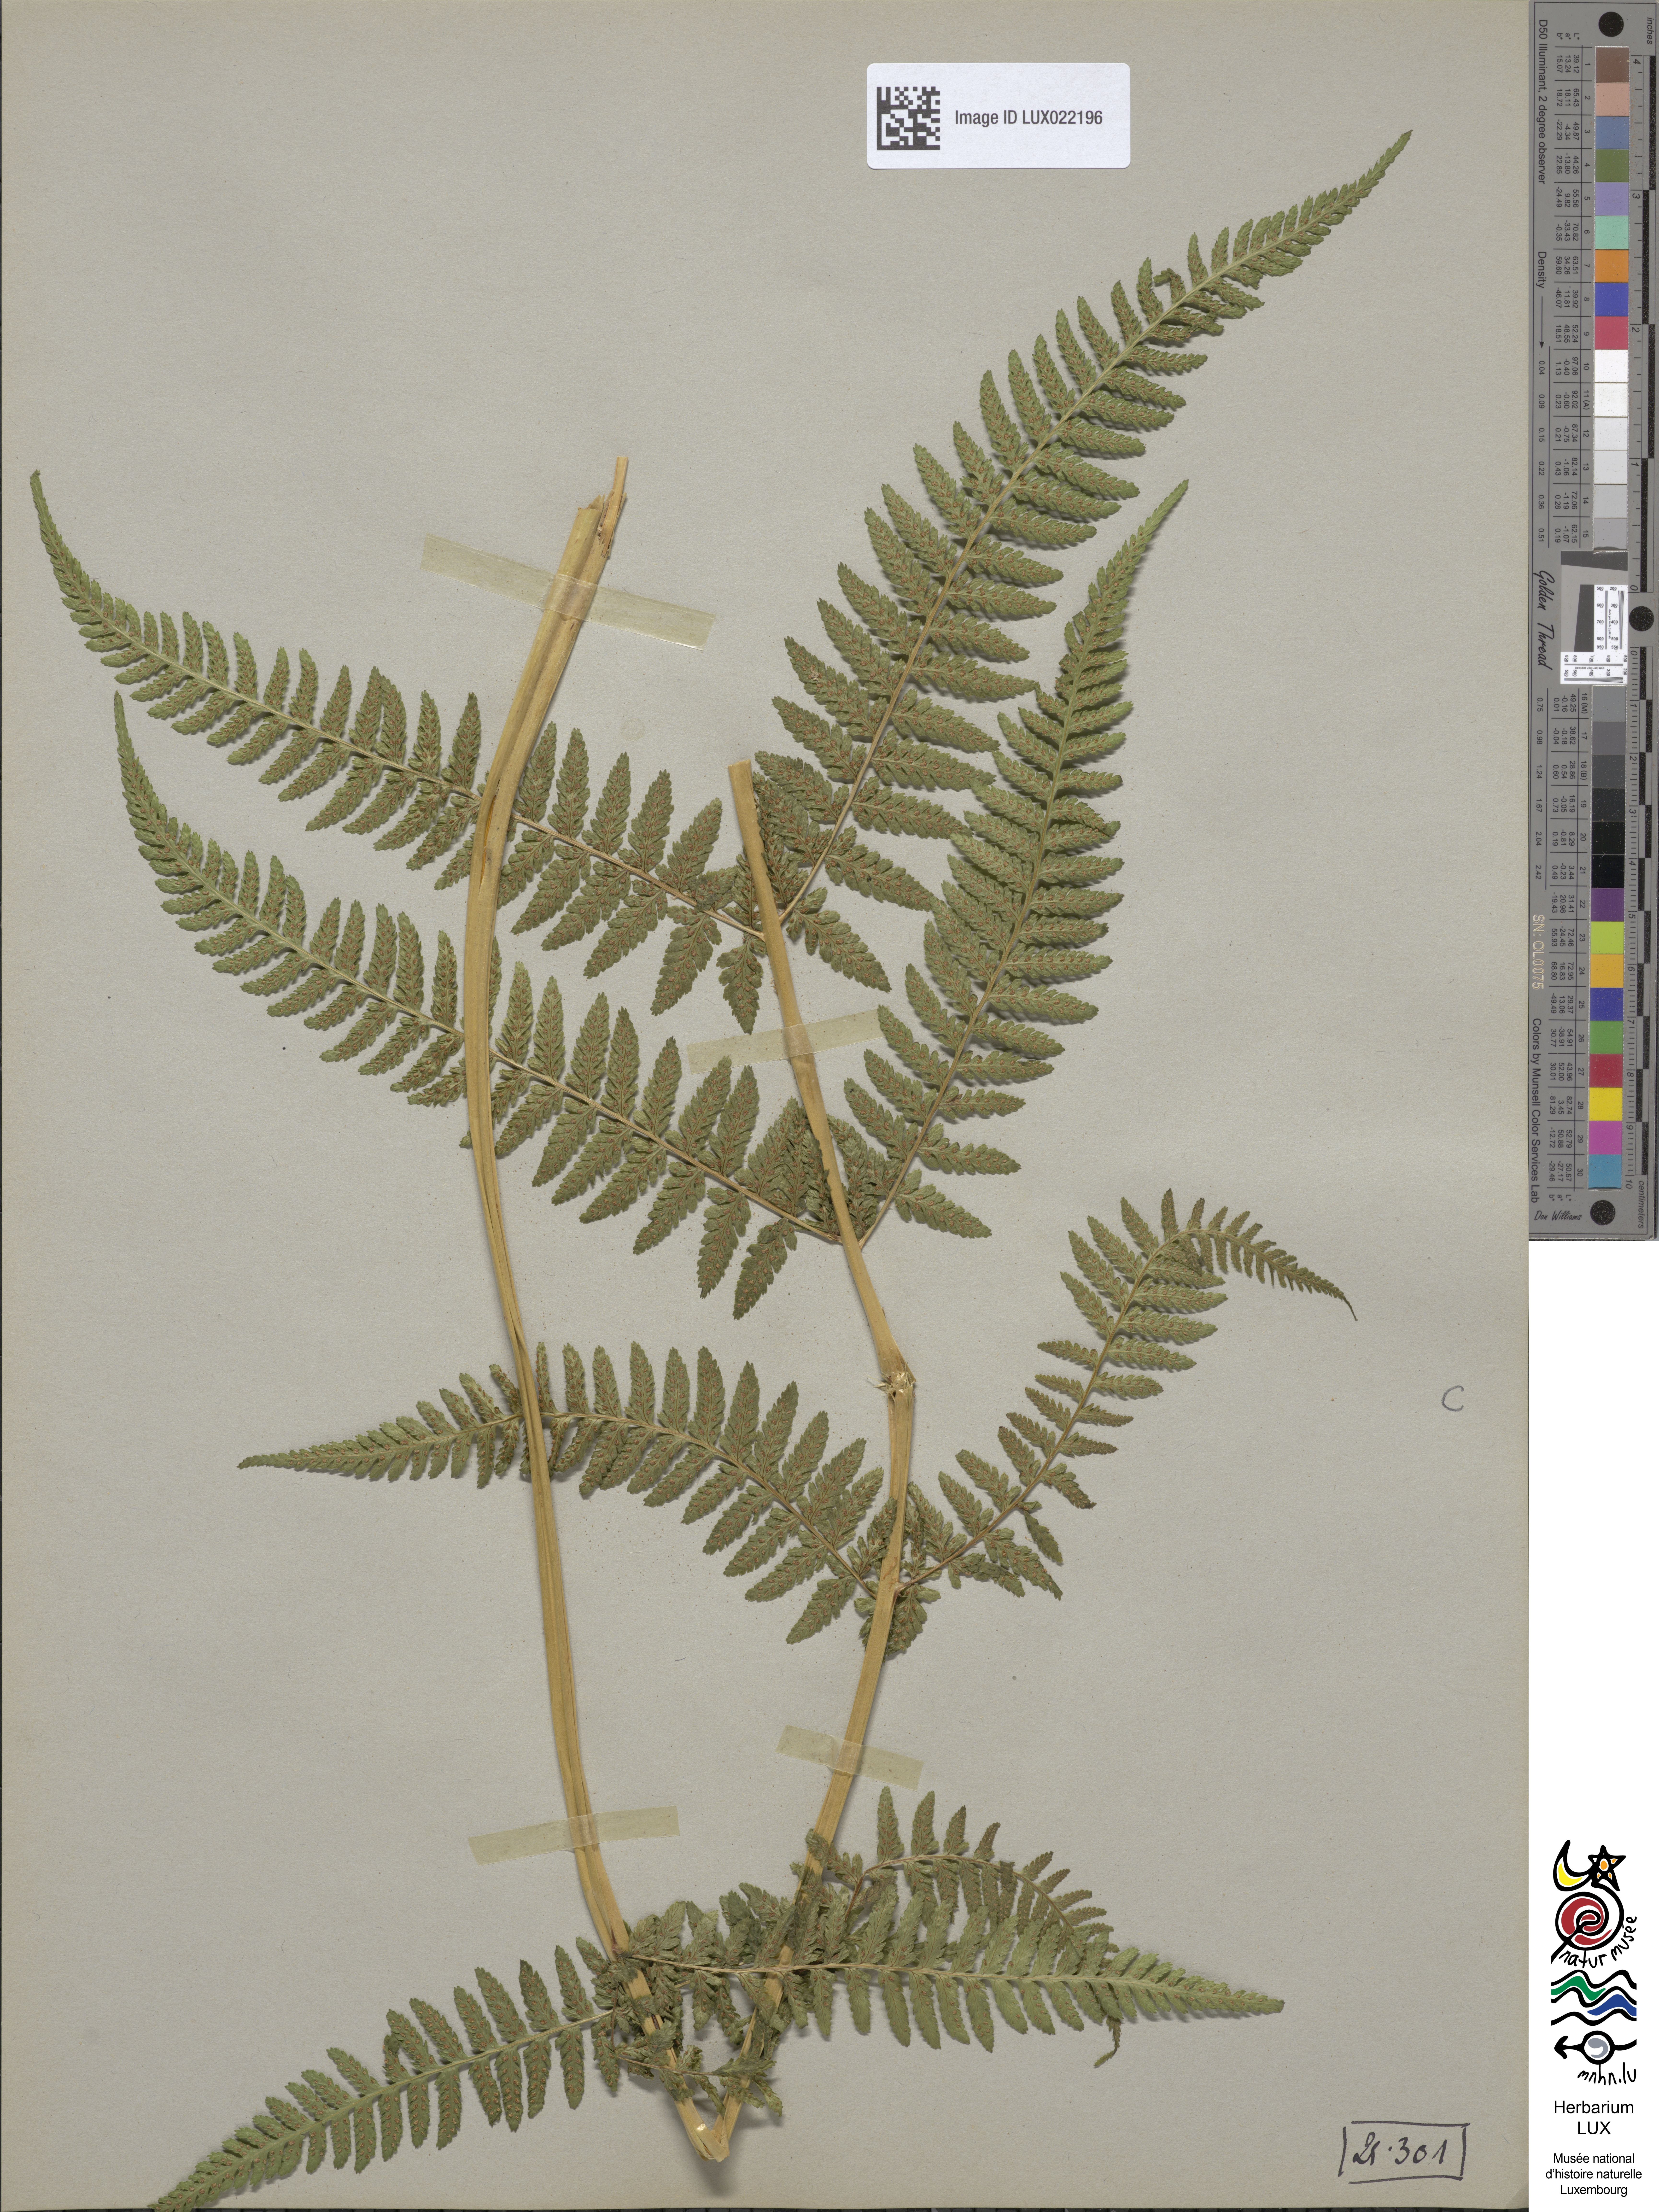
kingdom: Plantae
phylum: Tracheophyta
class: Polypodiopsida
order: Polypodiales
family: Athyriaceae
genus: Athyrium
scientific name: Athyrium filix-femina
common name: Lady fern
